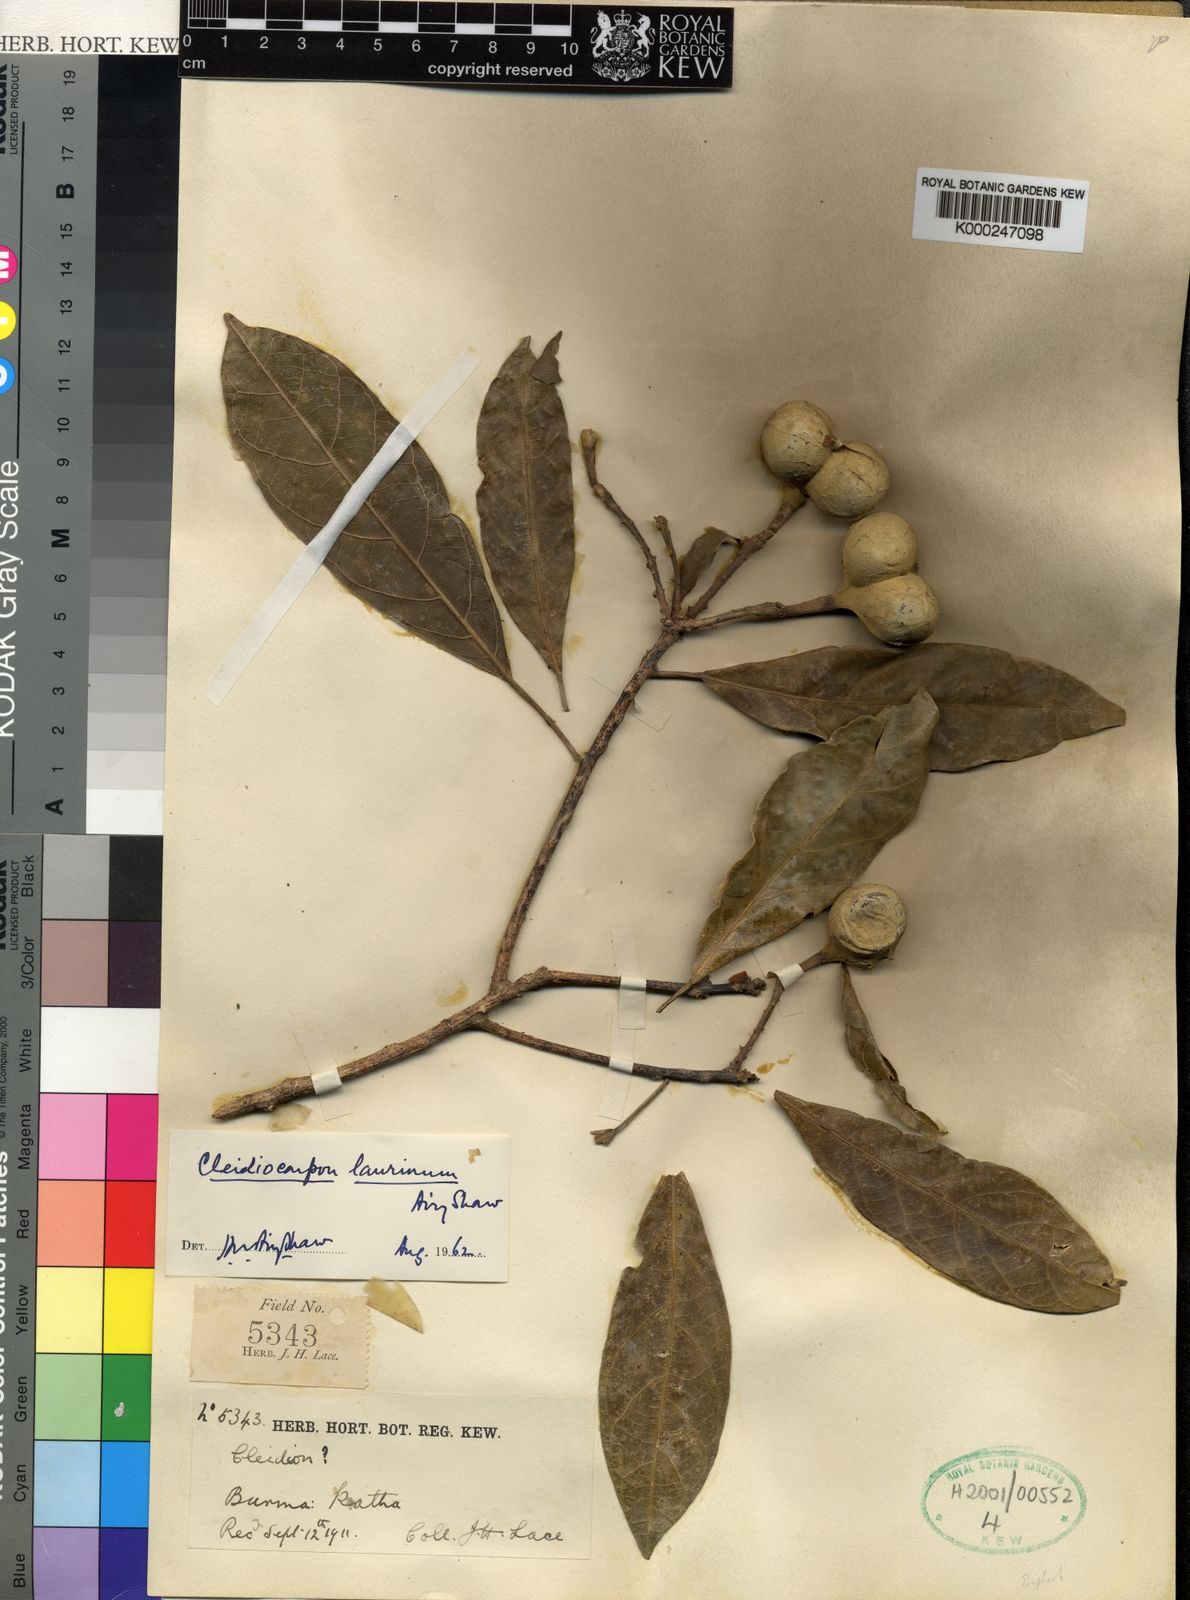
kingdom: Plantae
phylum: Tracheophyta
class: Magnoliopsida
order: Malpighiales
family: Euphorbiaceae
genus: Cleidiocarpon
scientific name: Cleidiocarpon laurinum
